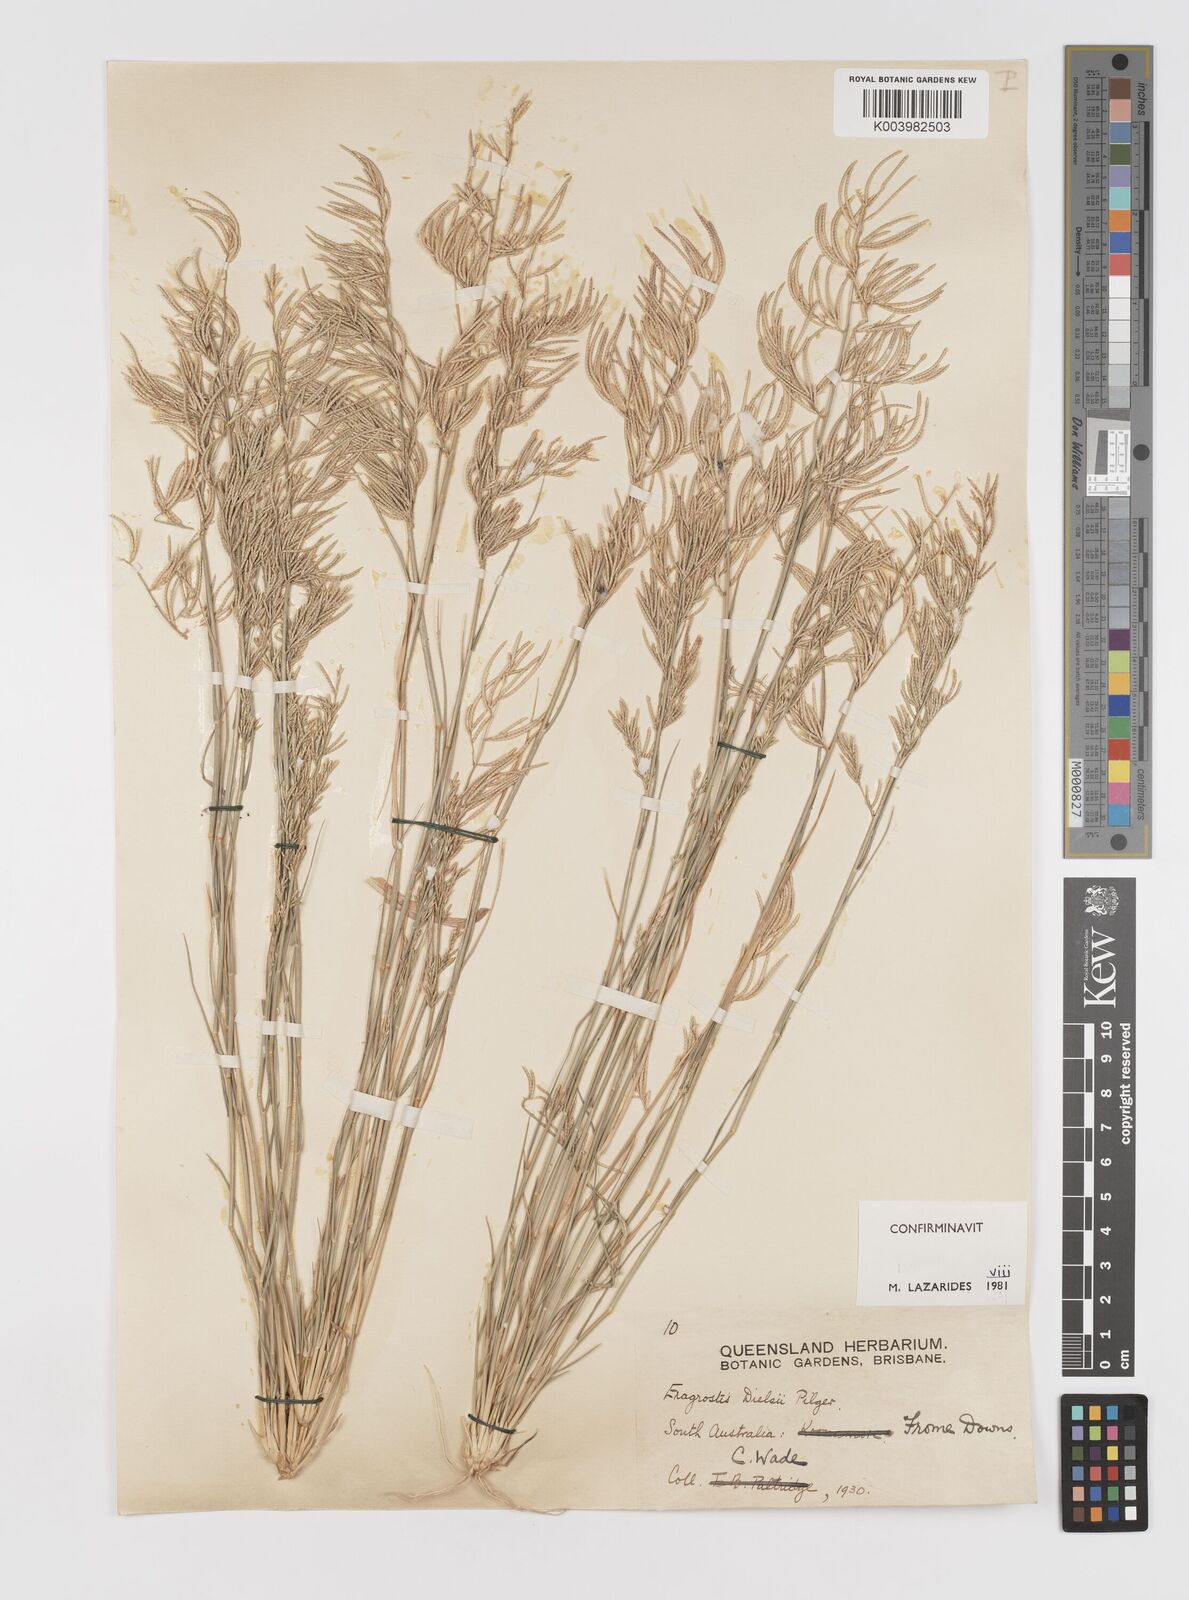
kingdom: Plantae
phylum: Tracheophyta
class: Liliopsida
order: Poales
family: Poaceae
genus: Eragrostis
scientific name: Eragrostis dielsii
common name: Lovegrass
